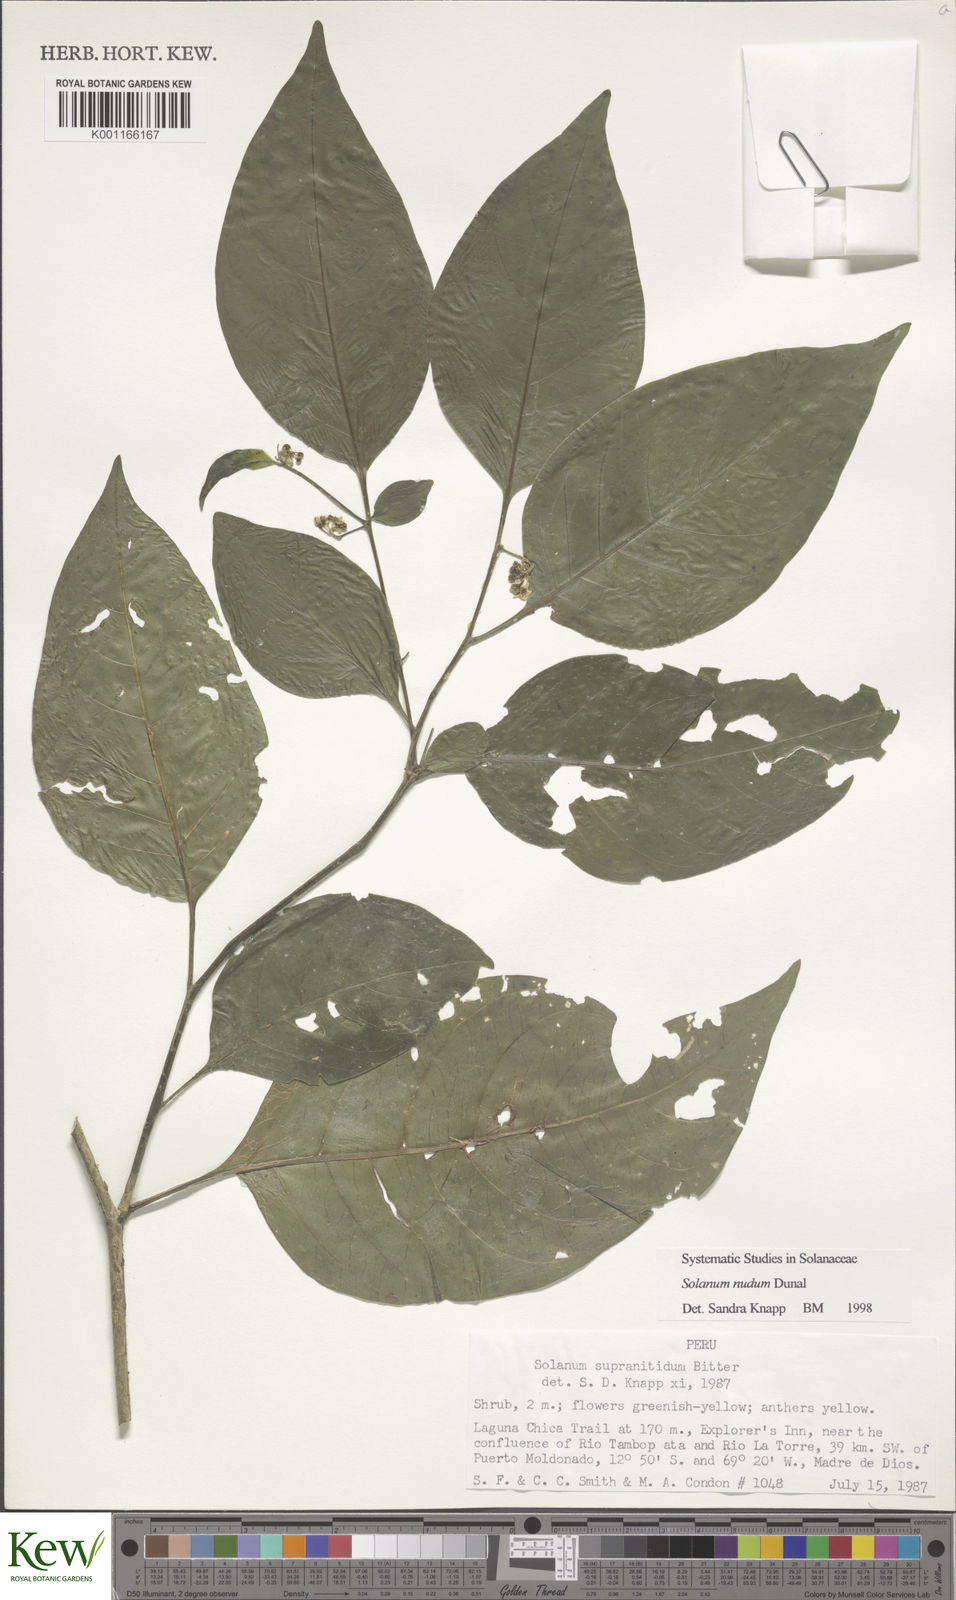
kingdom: Plantae
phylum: Tracheophyta
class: Magnoliopsida
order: Solanales
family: Solanaceae
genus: Solanum
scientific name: Solanum nudum
